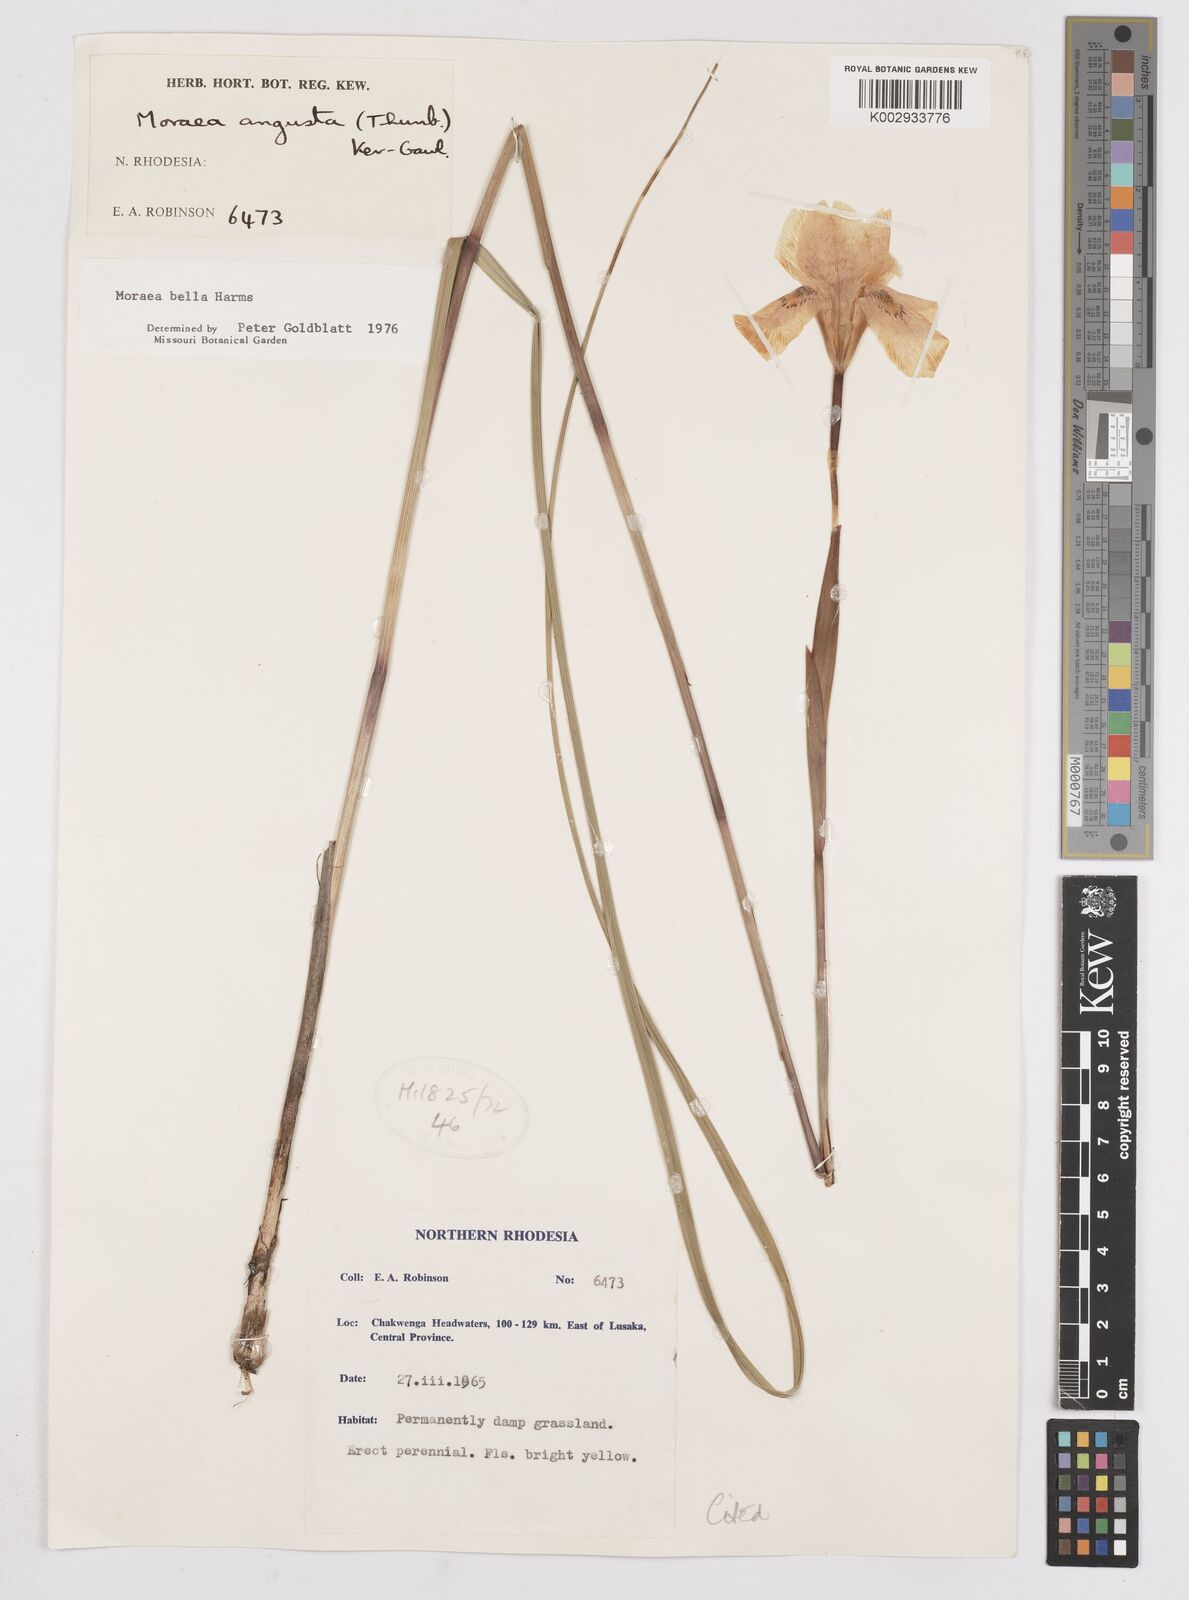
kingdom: Plantae
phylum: Tracheophyta
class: Liliopsida
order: Asparagales
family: Iridaceae
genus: Moraea
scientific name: Moraea bella
